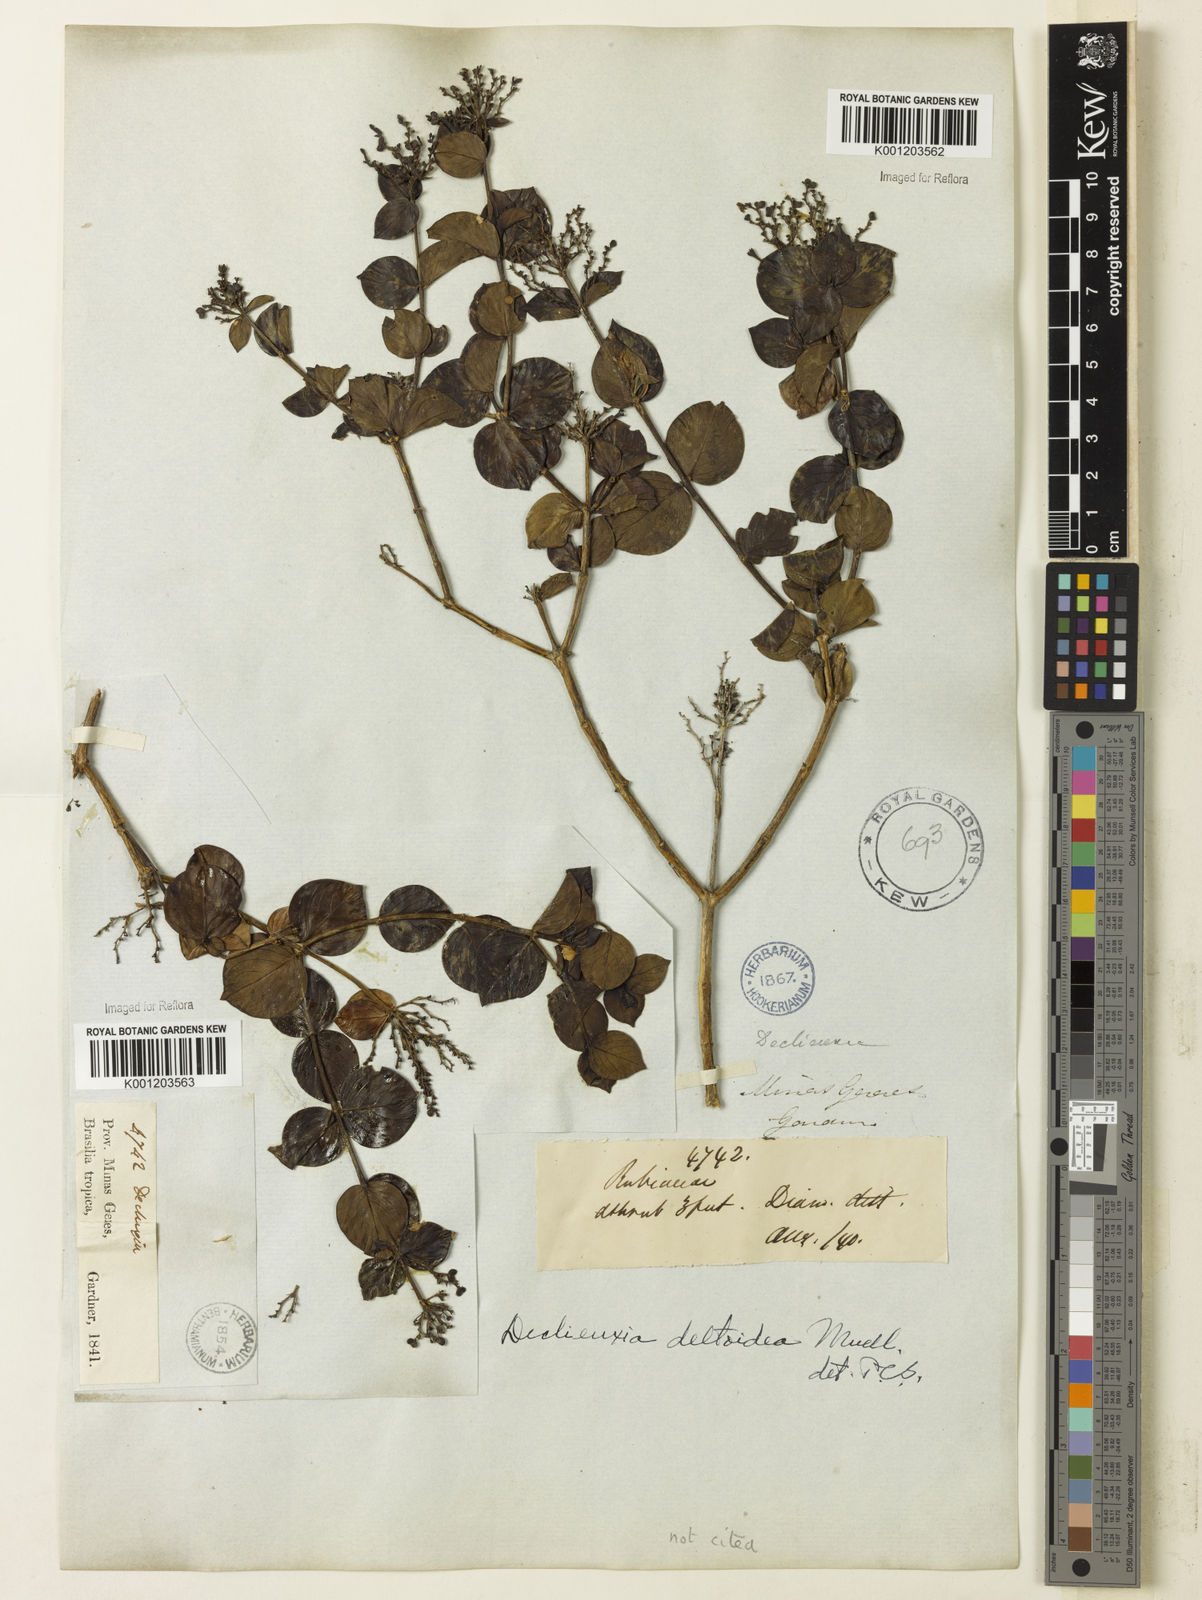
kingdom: Plantae
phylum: Tracheophyta
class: Magnoliopsida
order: Gentianales
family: Rubiaceae
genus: Declieuxia
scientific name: Declieuxia fruticosa
